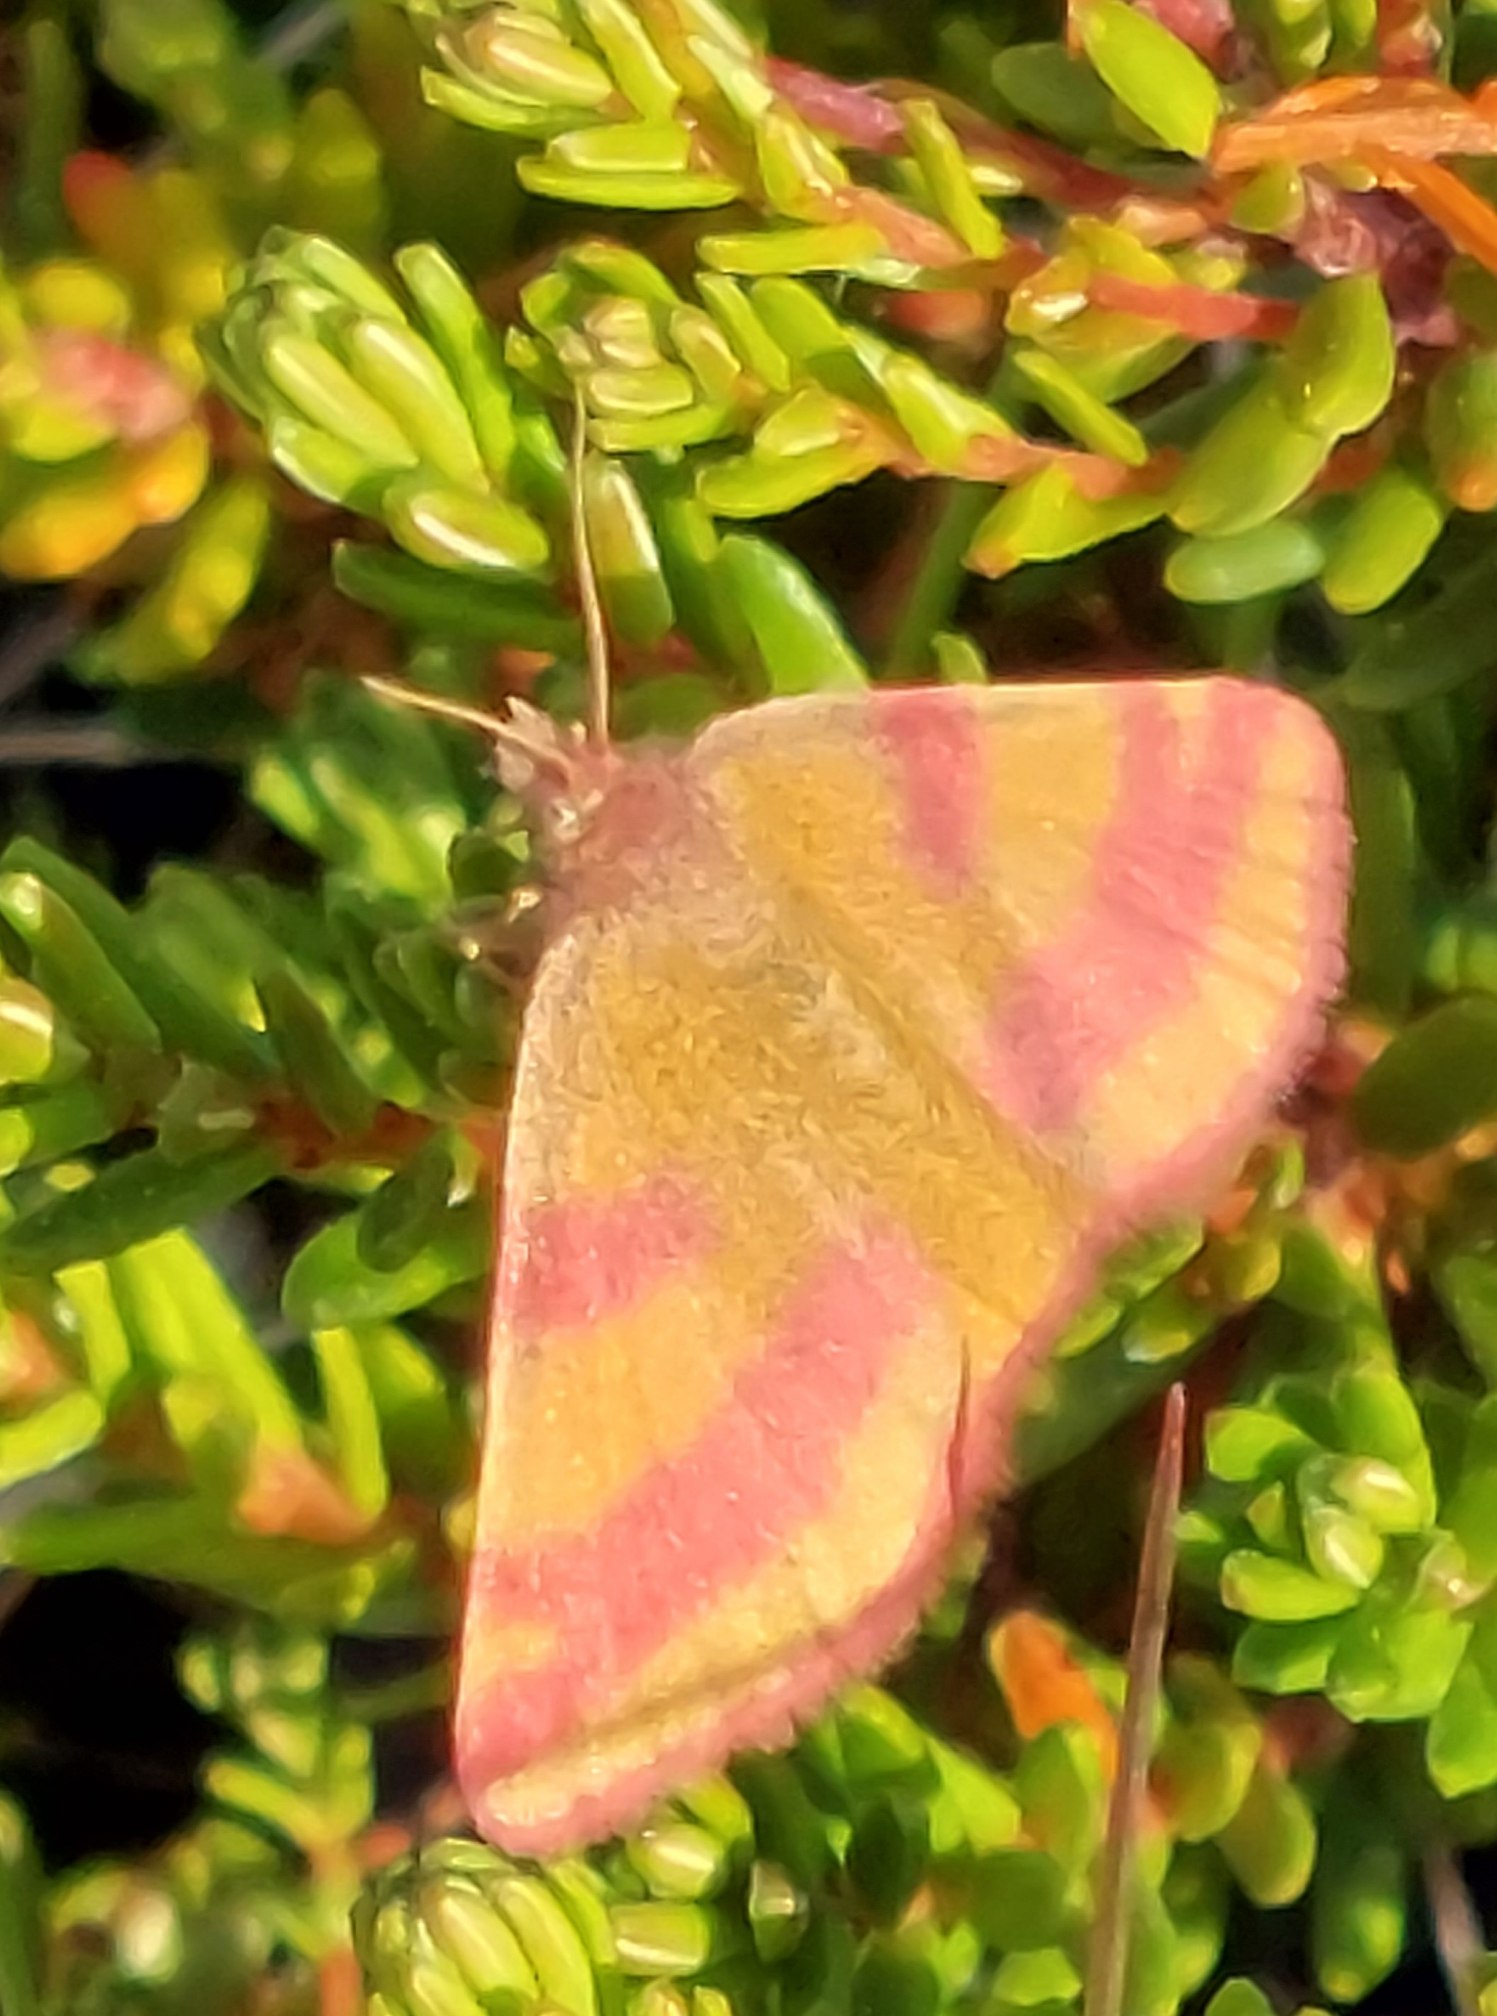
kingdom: Animalia
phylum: Arthropoda
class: Insecta
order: Lepidoptera
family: Geometridae
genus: Lythria
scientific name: Lythria cruentaria
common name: Purpurmåler
